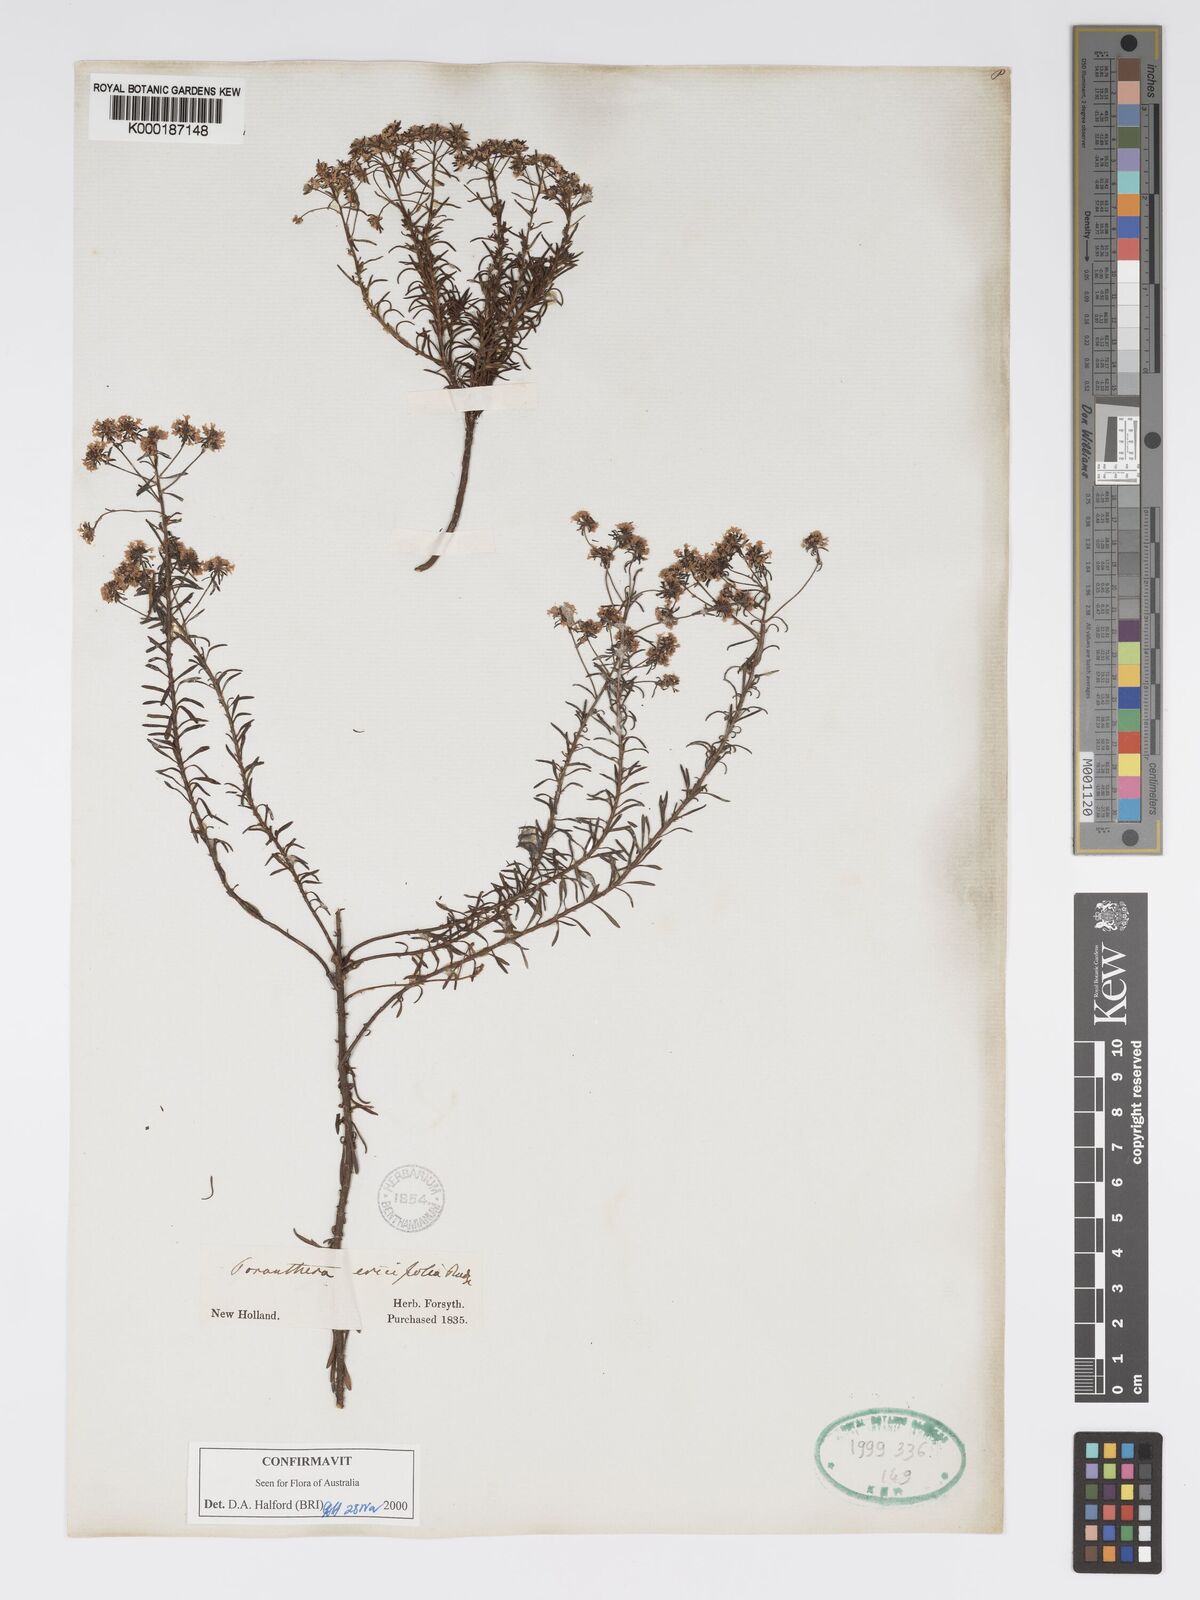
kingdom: Plantae
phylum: Tracheophyta
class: Magnoliopsida
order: Malpighiales
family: Phyllanthaceae
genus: Poranthera
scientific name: Poranthera ericifolia
